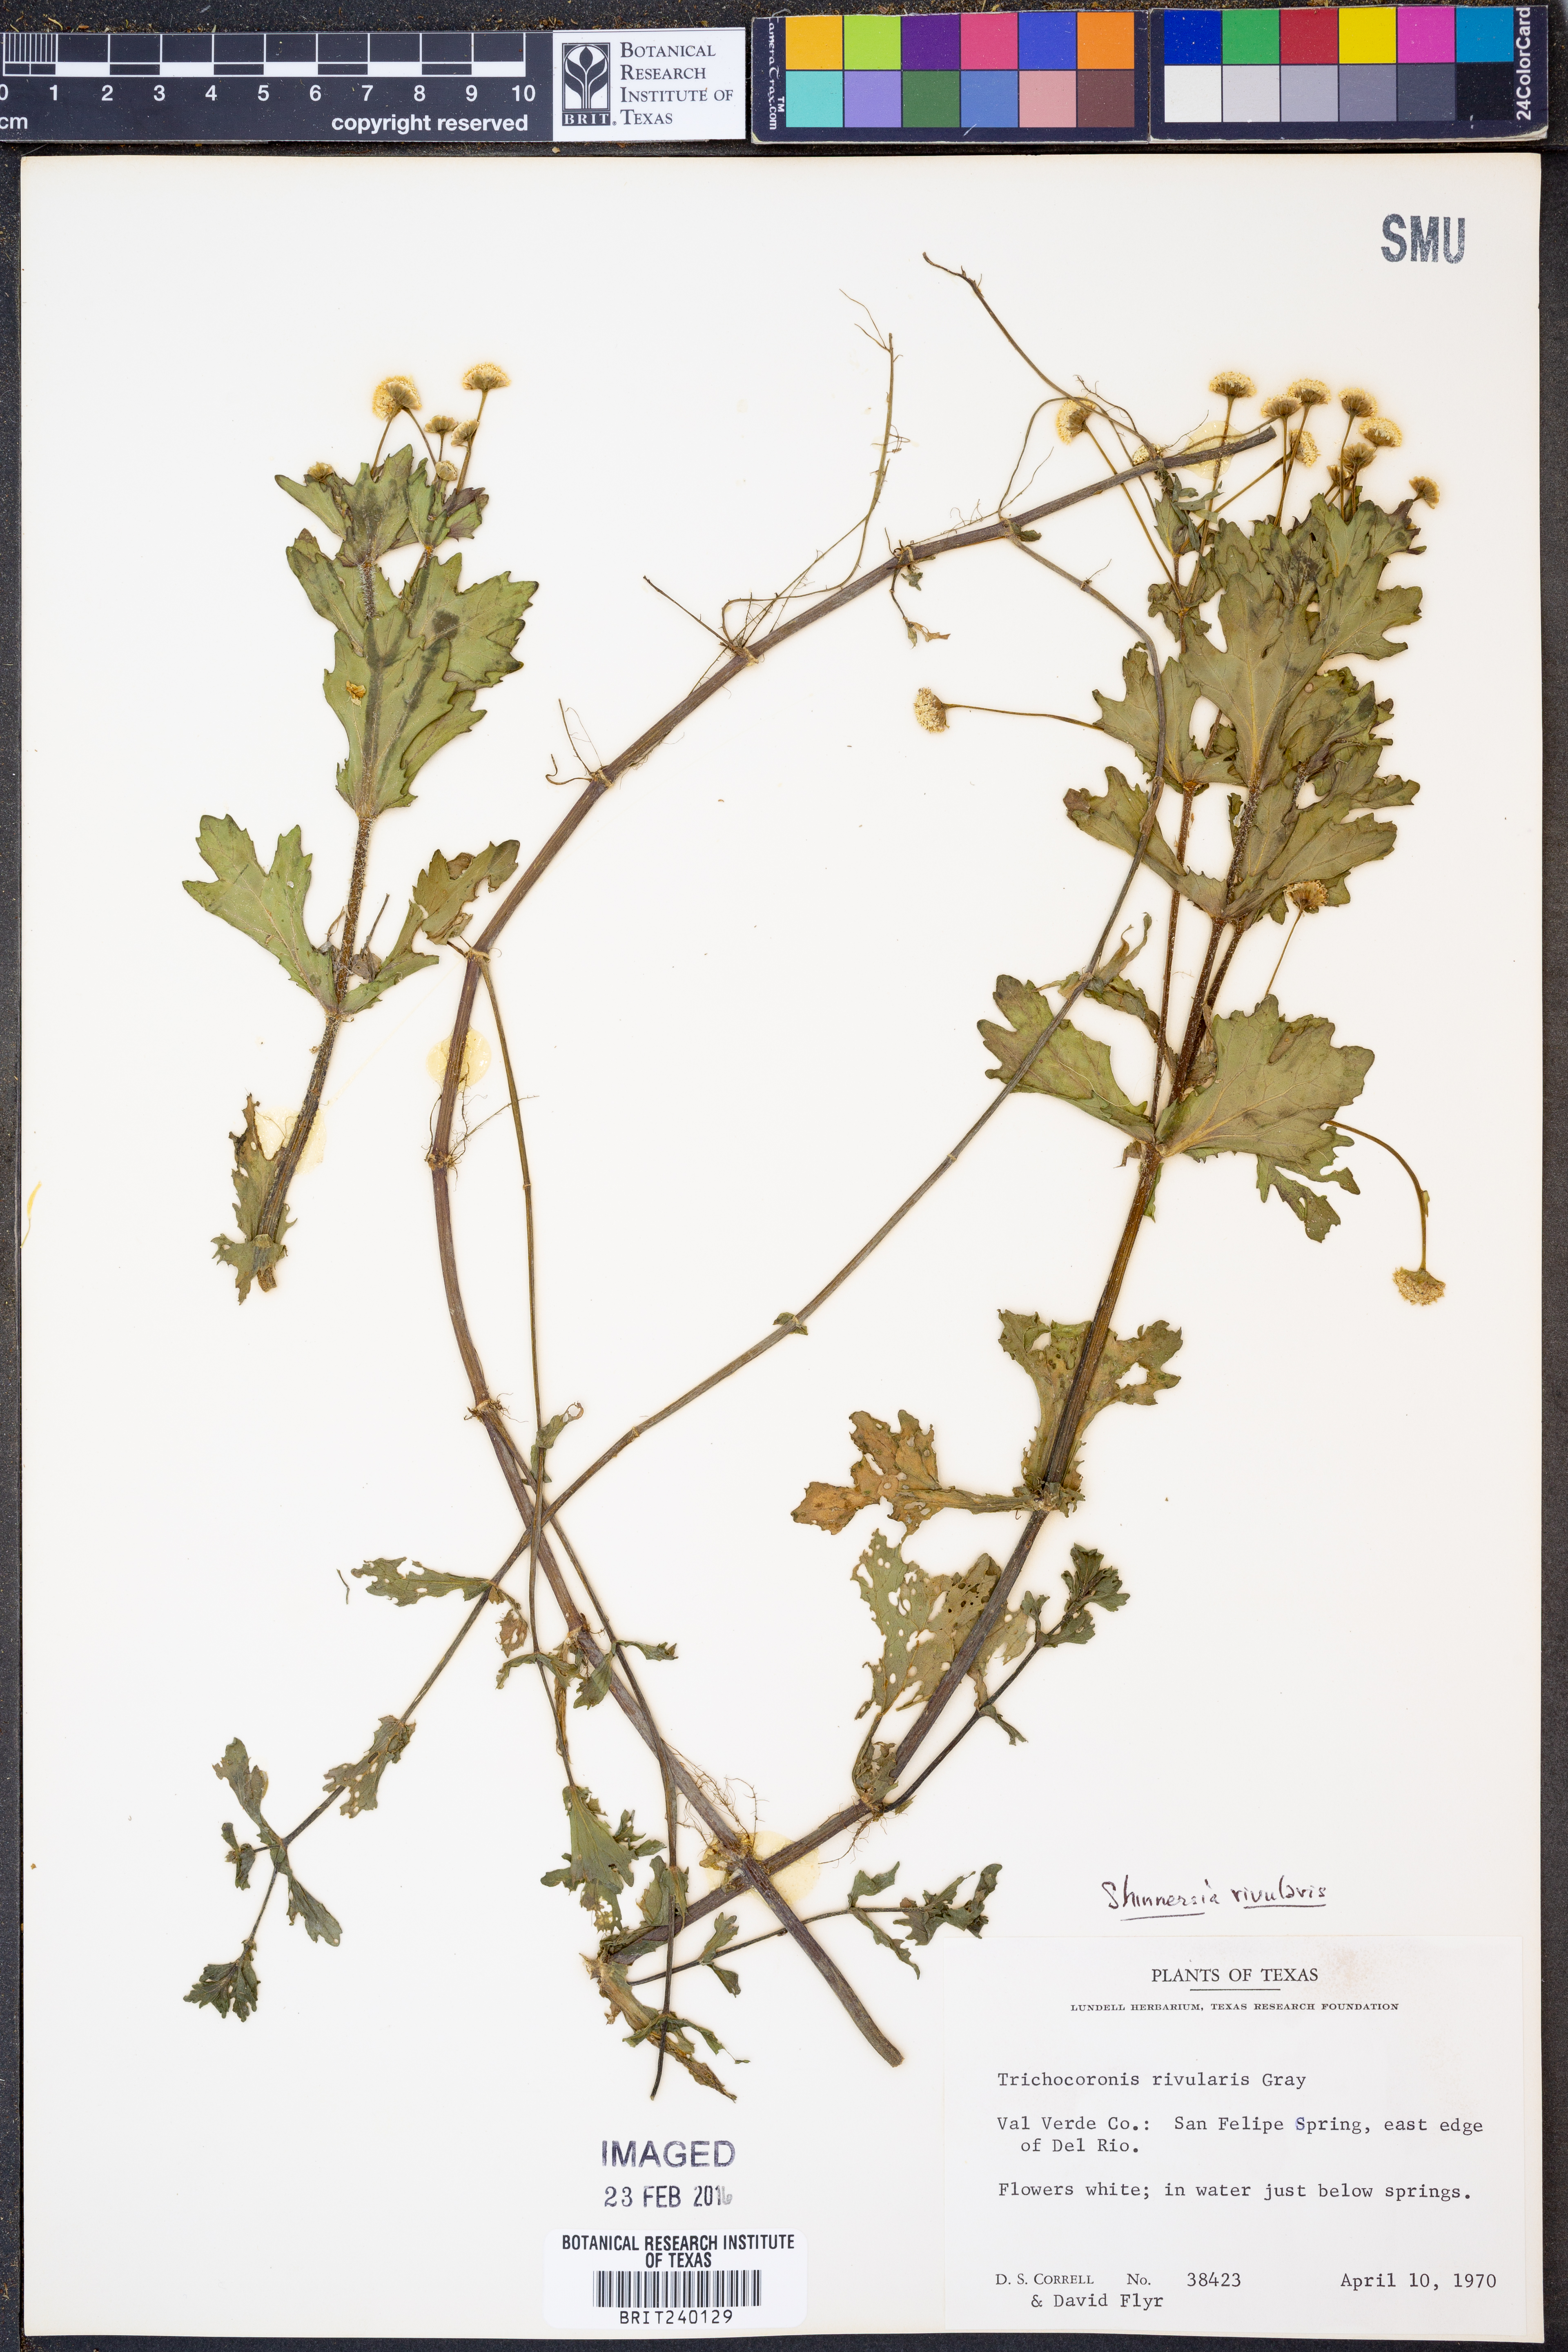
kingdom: Plantae
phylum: Tracheophyta
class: Magnoliopsida
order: Asterales
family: Asteraceae
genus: Shinnersia
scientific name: Shinnersia rivularis
